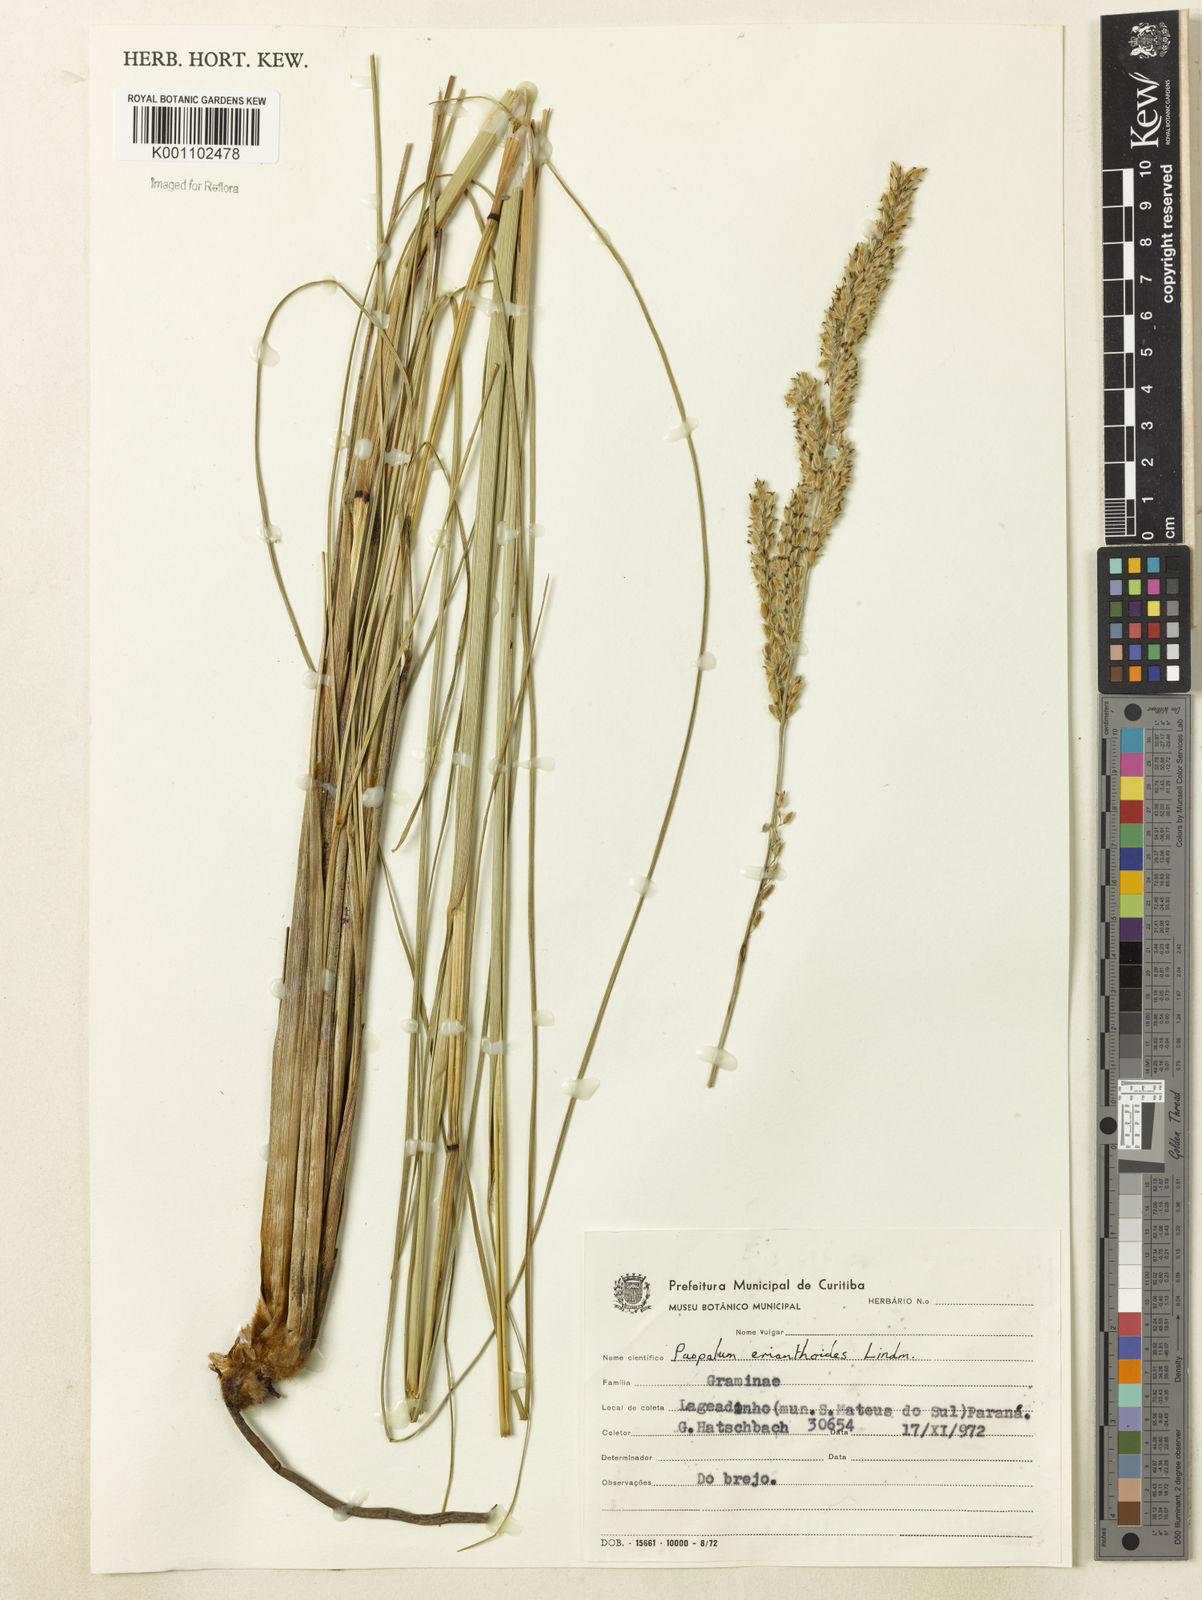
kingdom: Plantae
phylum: Tracheophyta
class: Liliopsida
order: Poales
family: Poaceae
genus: Paspalum
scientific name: Paspalum erianthoides
